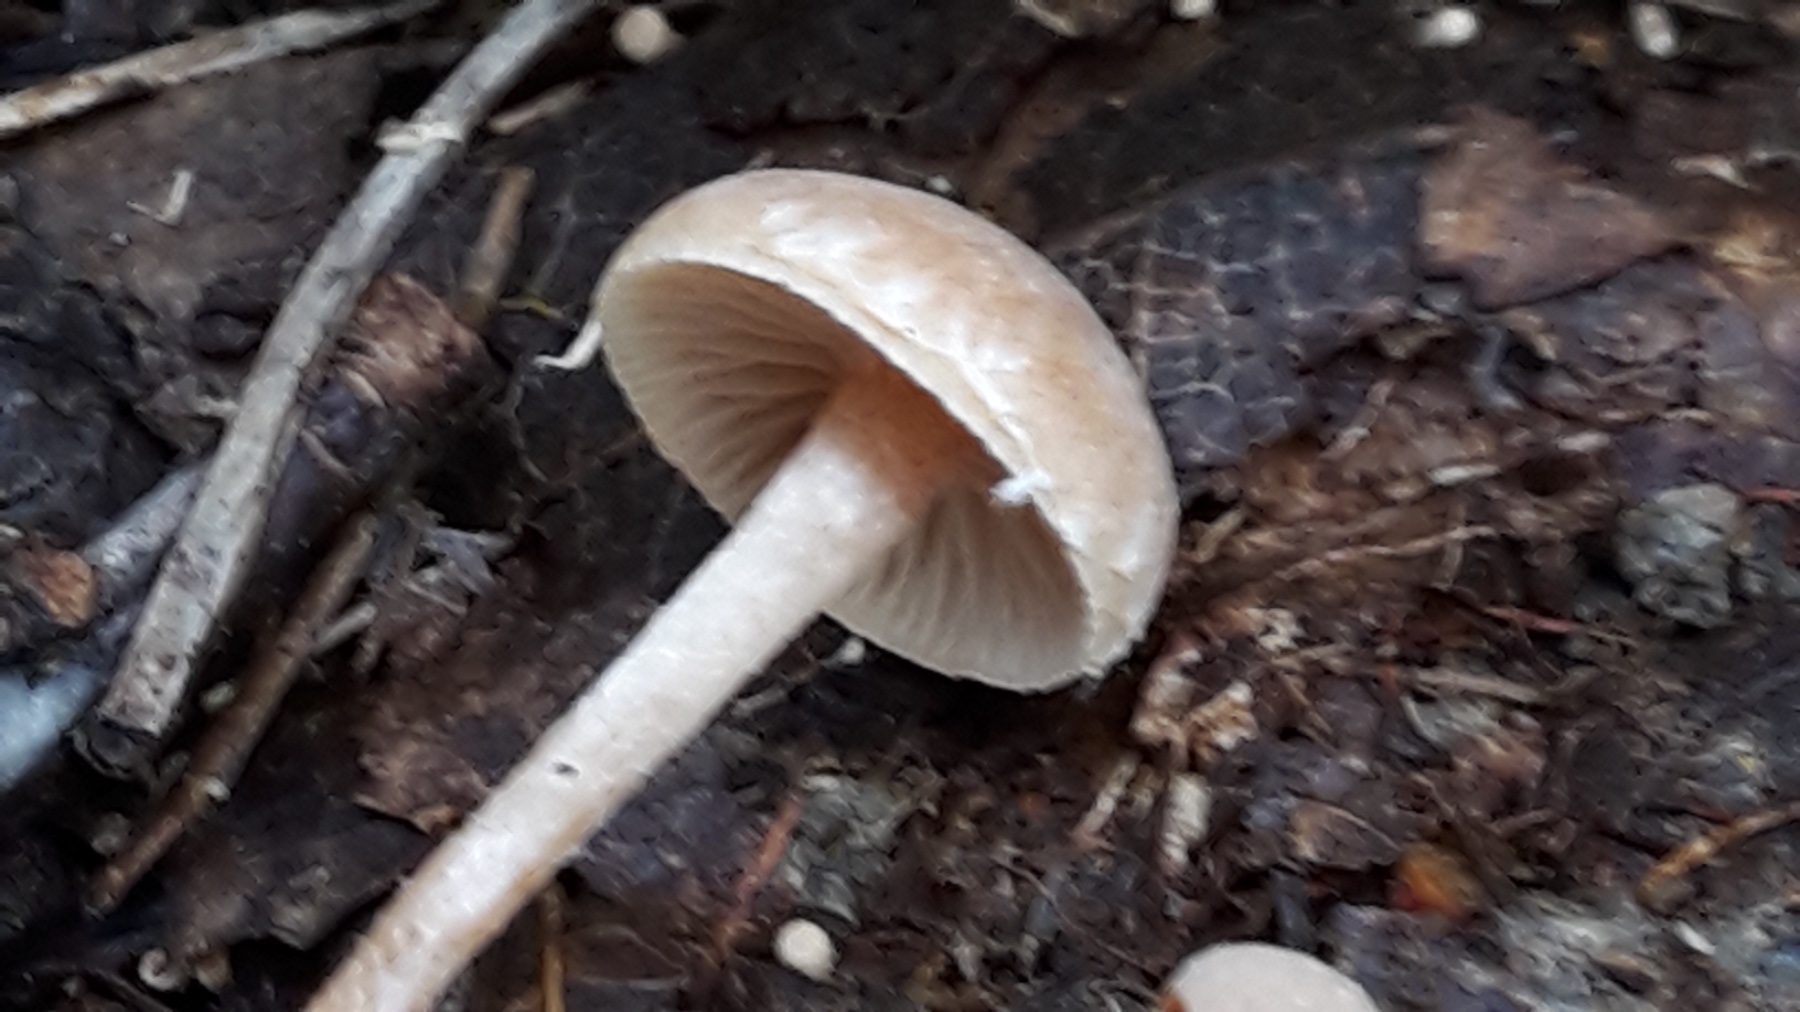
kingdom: Fungi
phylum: Basidiomycota
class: Agaricomycetes
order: Agaricales
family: Tubariaceae
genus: Tubaria
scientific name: Tubaria conspersa
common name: bleg fnughat
